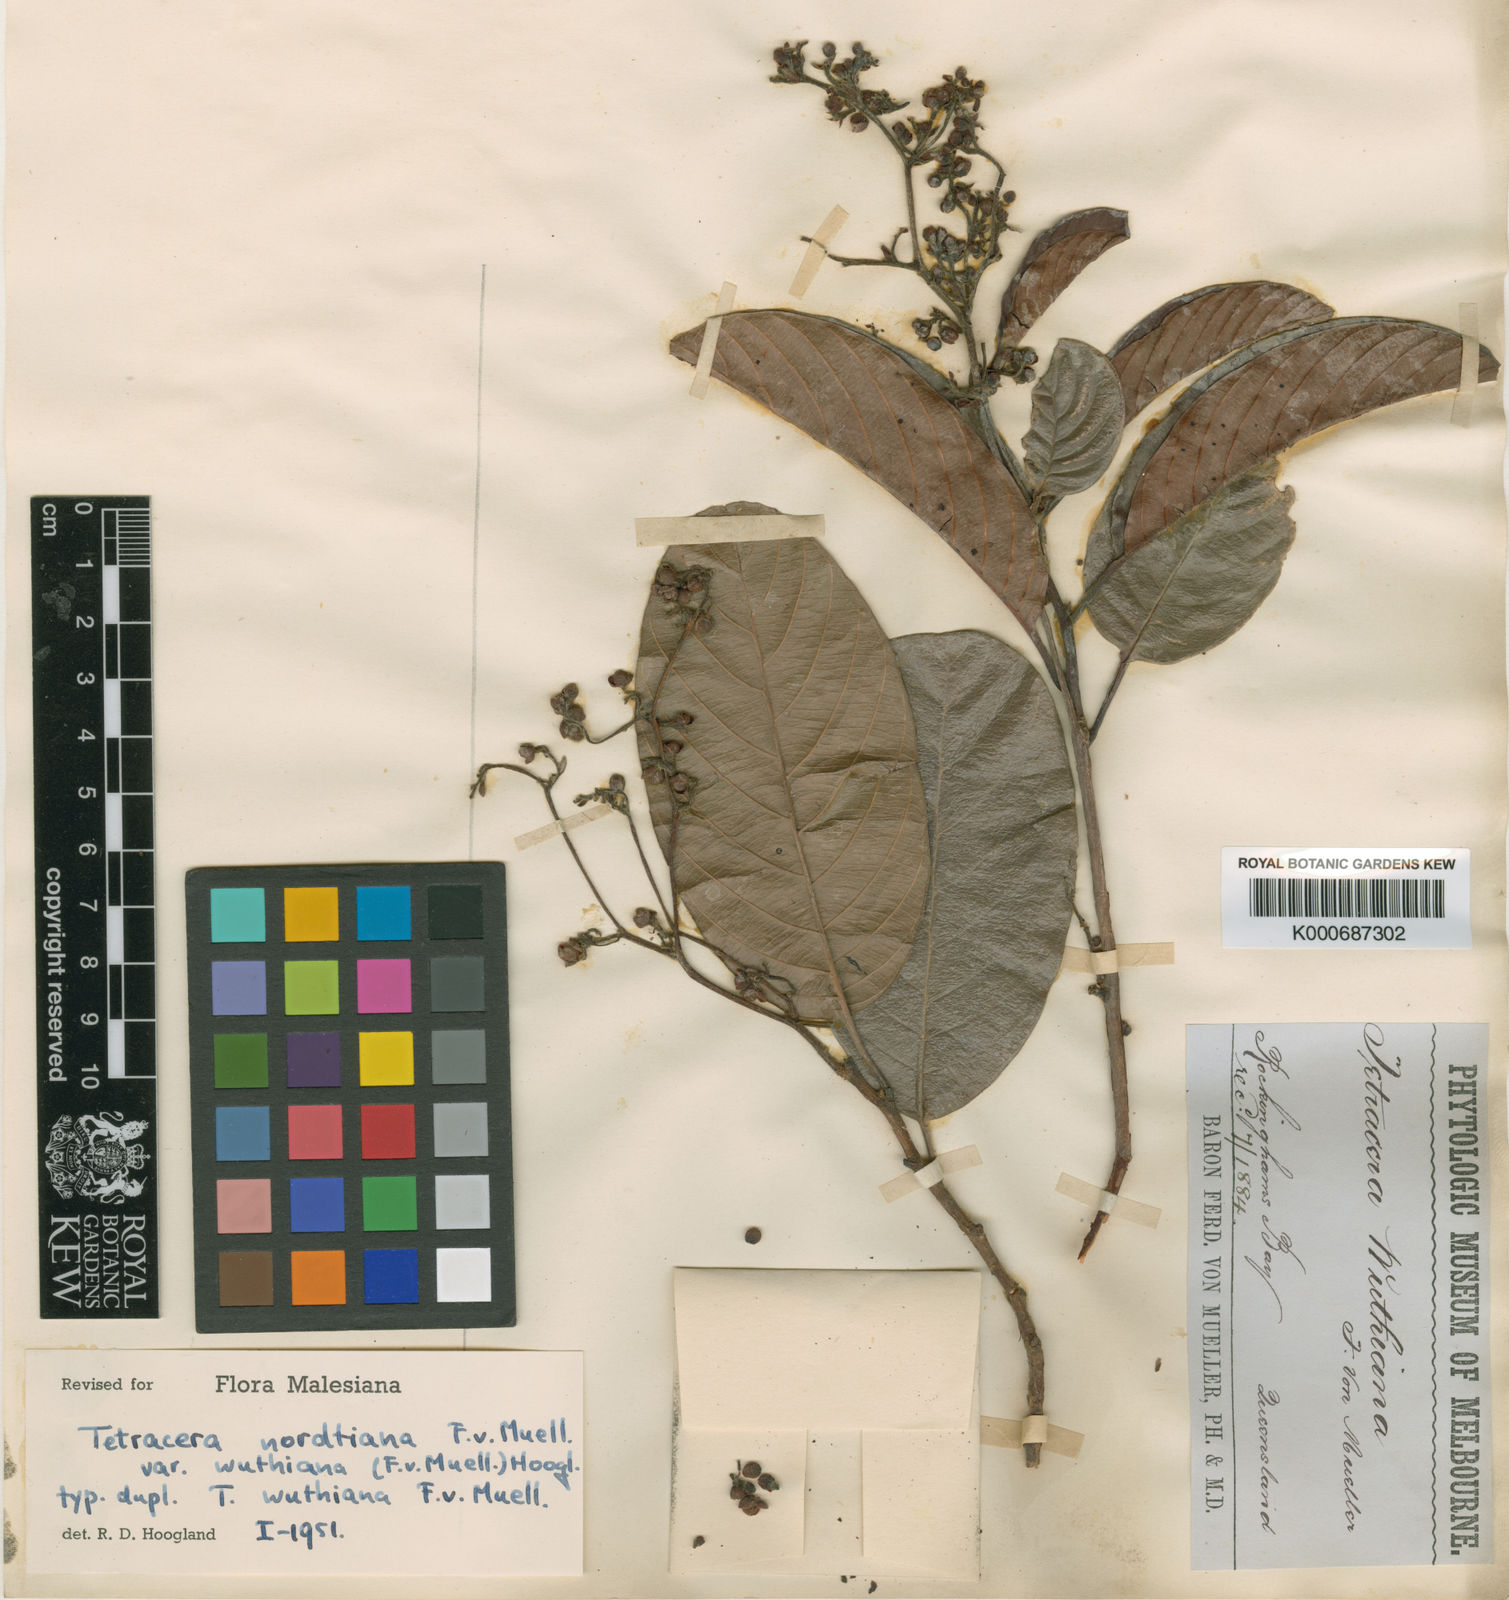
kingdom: Plantae
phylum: Tracheophyta
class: Magnoliopsida
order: Dilleniales
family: Dilleniaceae
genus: Tetracera
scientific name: Tetracera nordtiana
